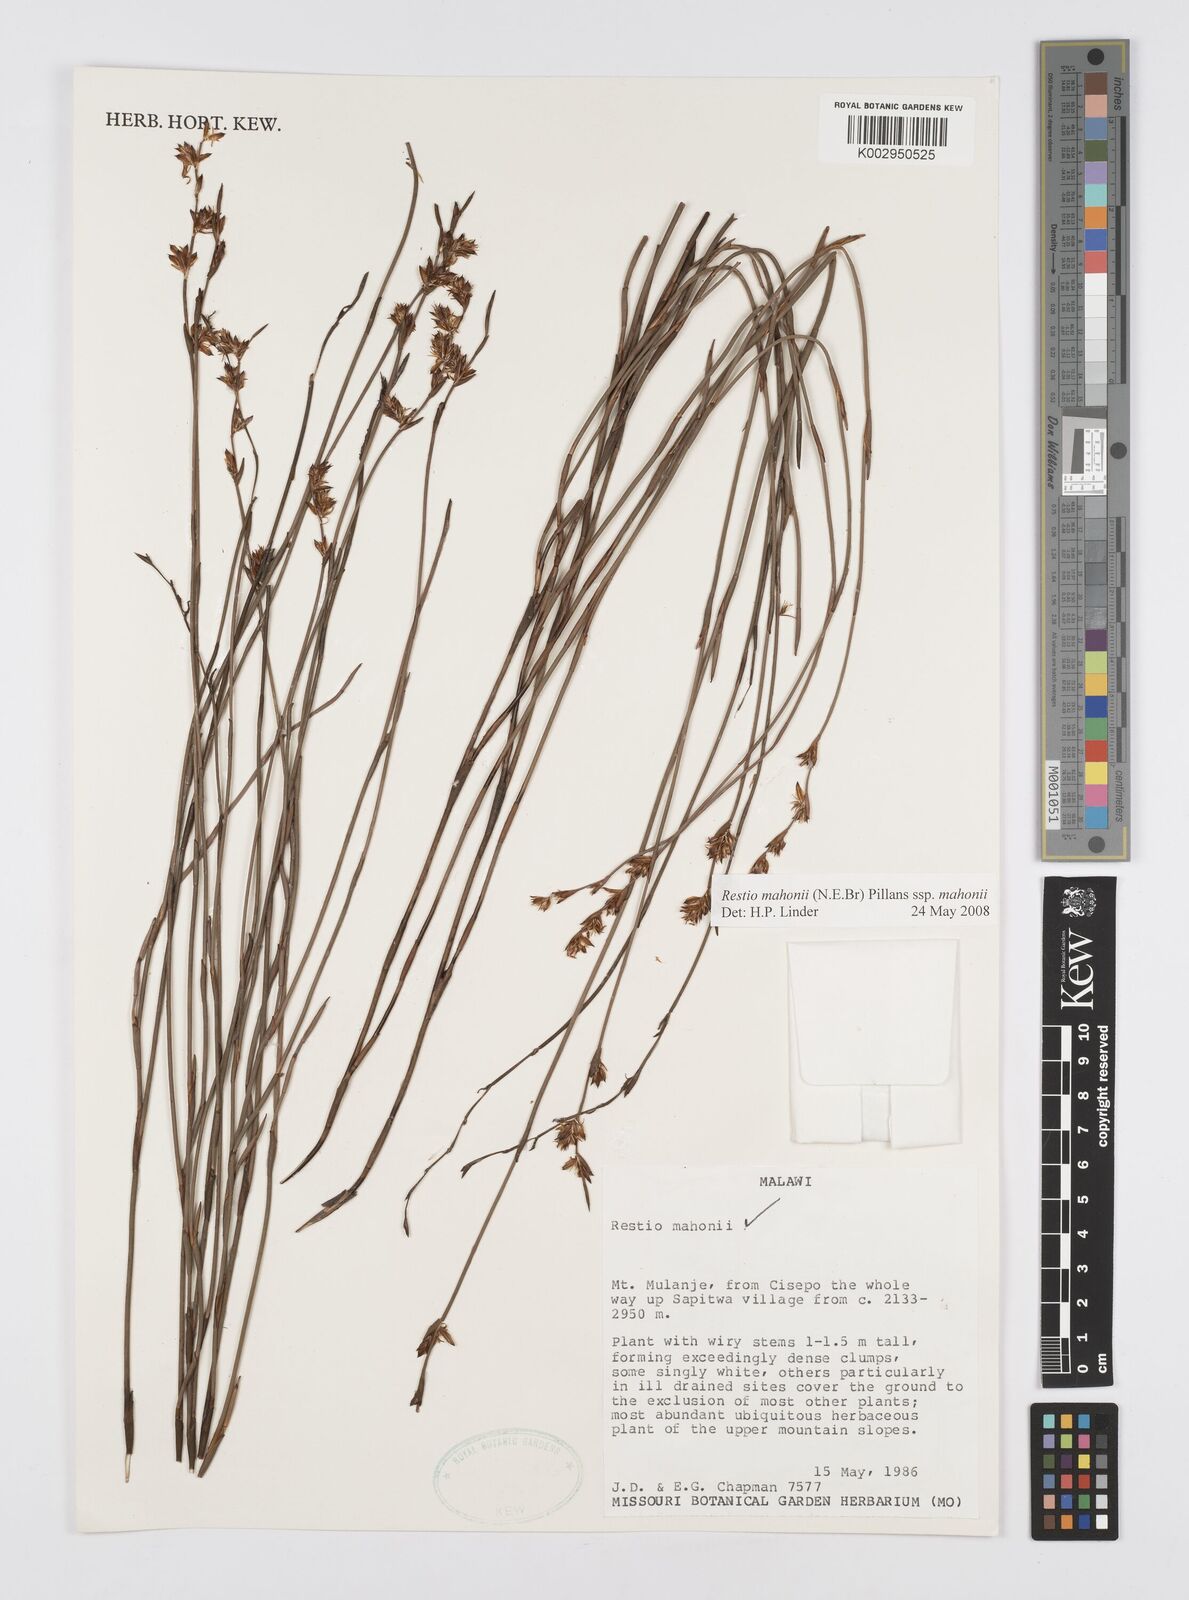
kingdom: Plantae
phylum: Tracheophyta
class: Liliopsida
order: Poales
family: Restionaceae
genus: Platycaulos
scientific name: Platycaulos mahonii
